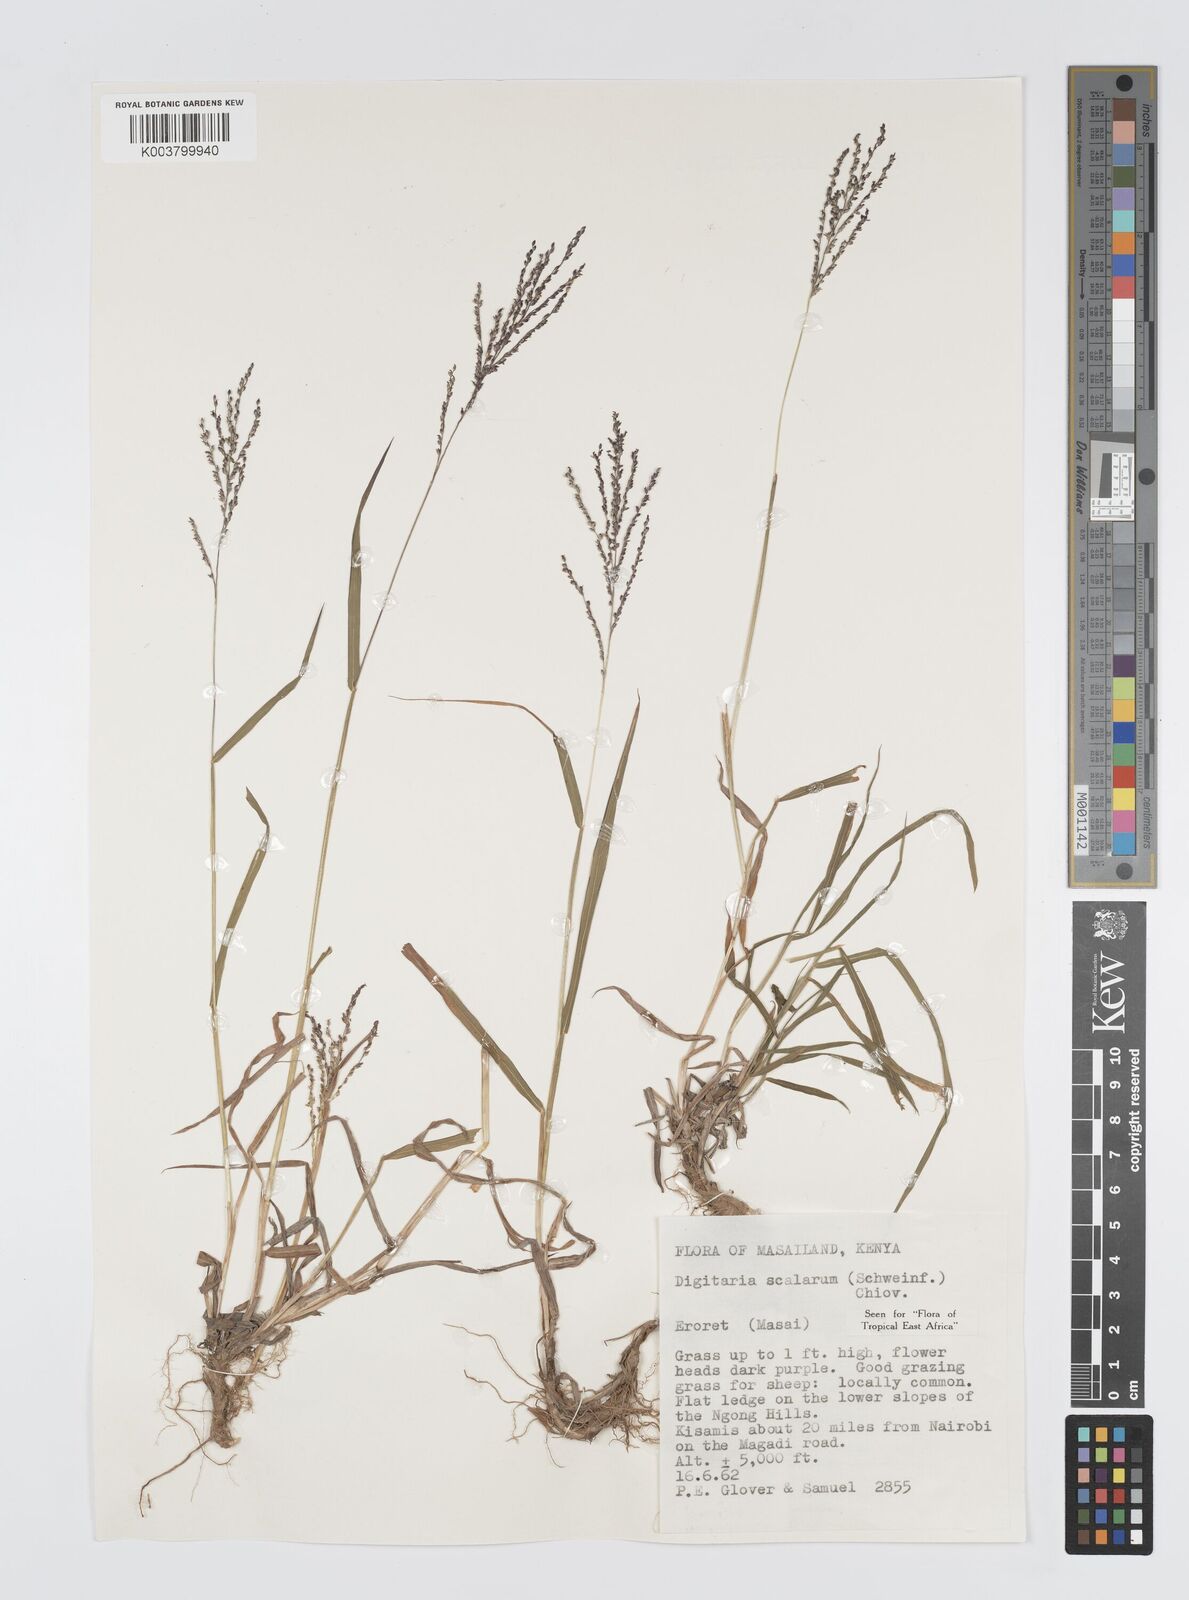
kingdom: Plantae
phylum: Tracheophyta
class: Liliopsida
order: Poales
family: Poaceae
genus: Digitaria
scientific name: Digitaria abyssinica
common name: African couchgrass
